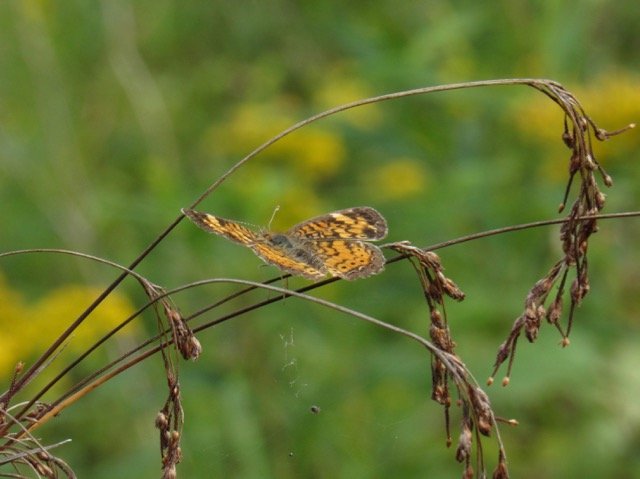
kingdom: Animalia
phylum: Arthropoda
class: Insecta
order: Lepidoptera
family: Nymphalidae
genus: Phyciodes
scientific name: Phyciodes tharos
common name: Pearl Crescent
